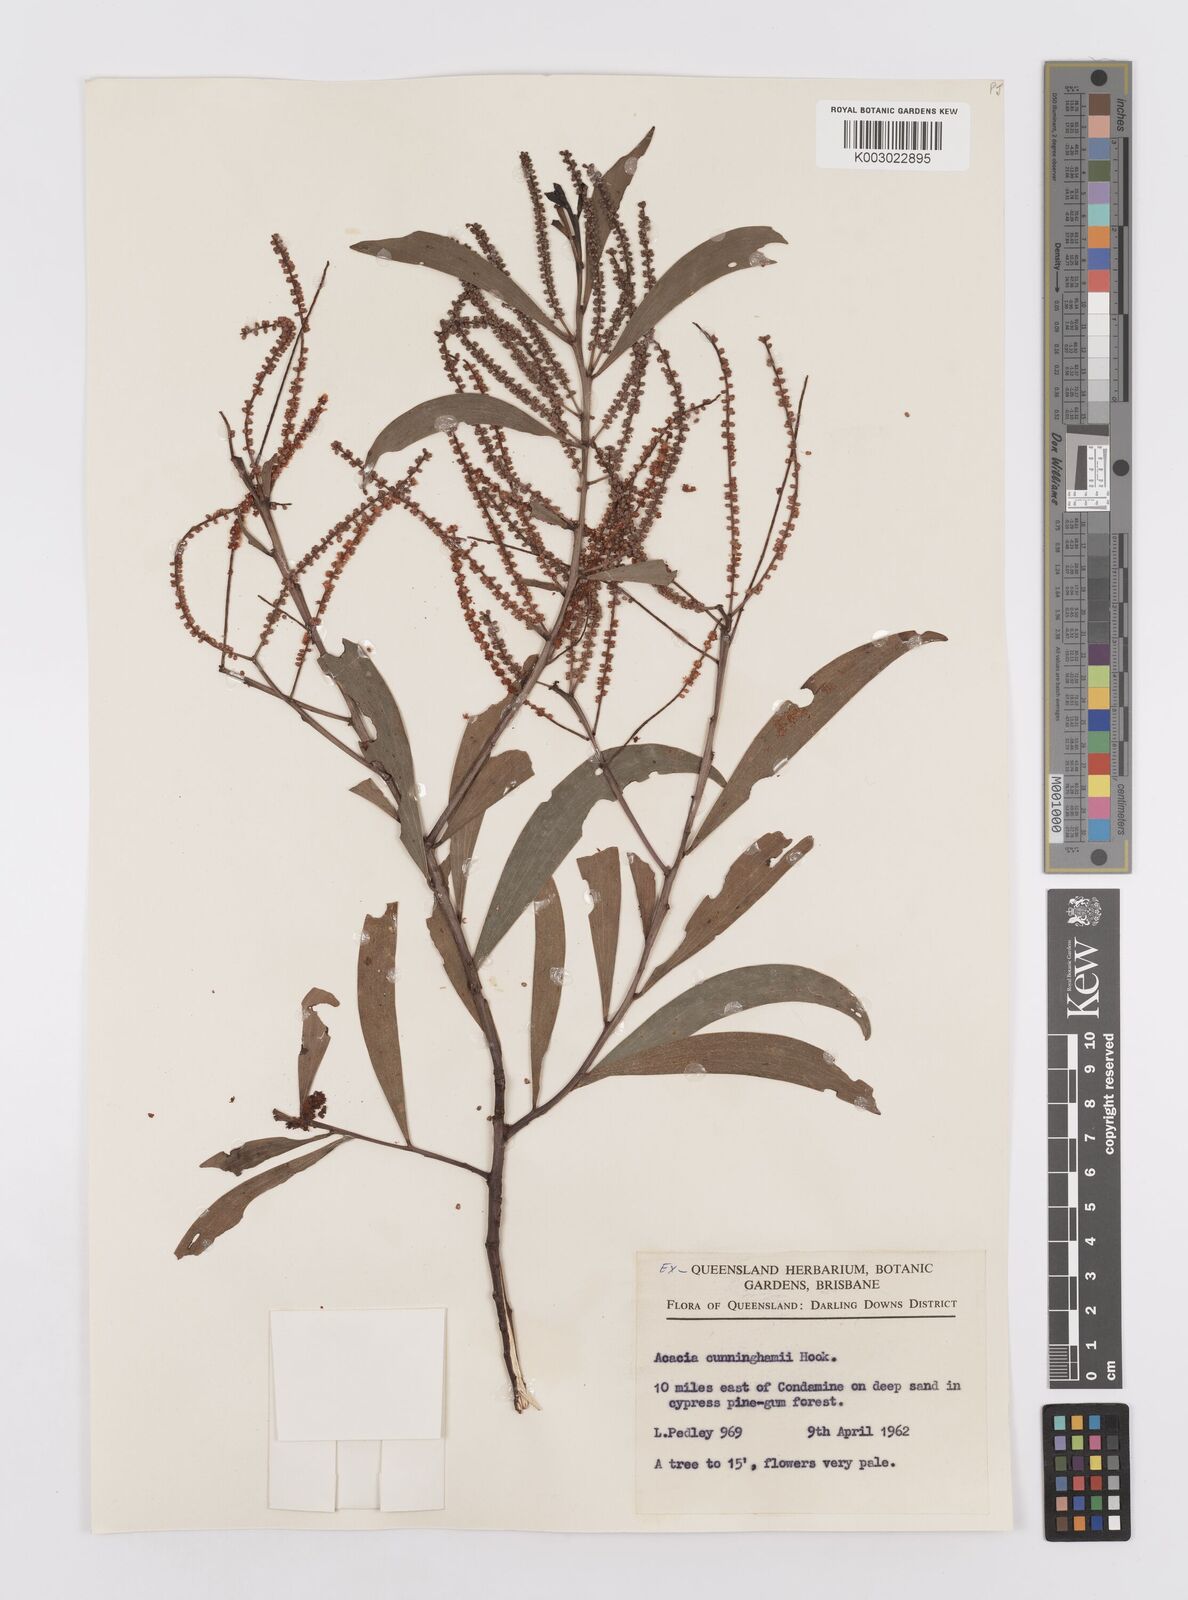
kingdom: Plantae
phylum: Tracheophyta
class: Magnoliopsida
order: Fabales
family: Fabaceae
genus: Acacia
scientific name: Acacia longispicata
